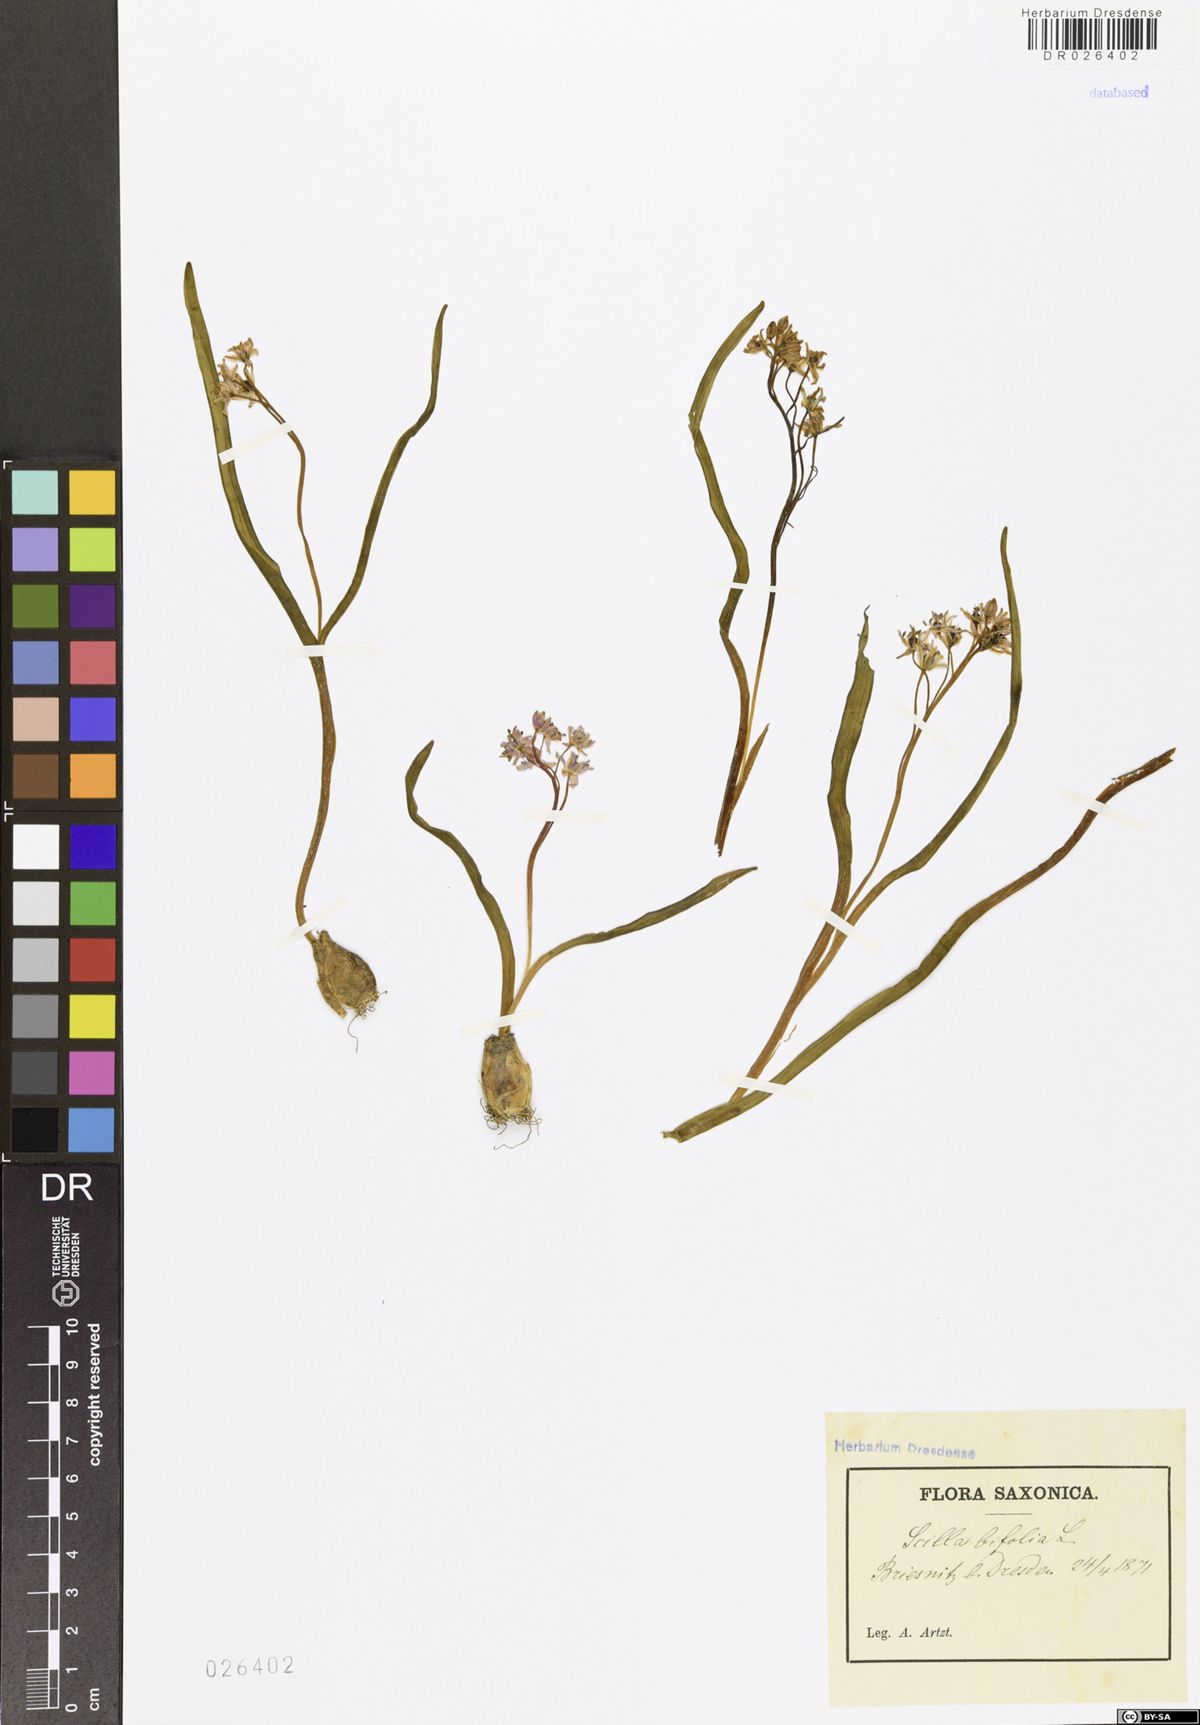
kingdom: Plantae
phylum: Tracheophyta
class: Liliopsida
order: Asparagales
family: Asparagaceae
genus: Scilla
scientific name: Scilla vindobonensis
